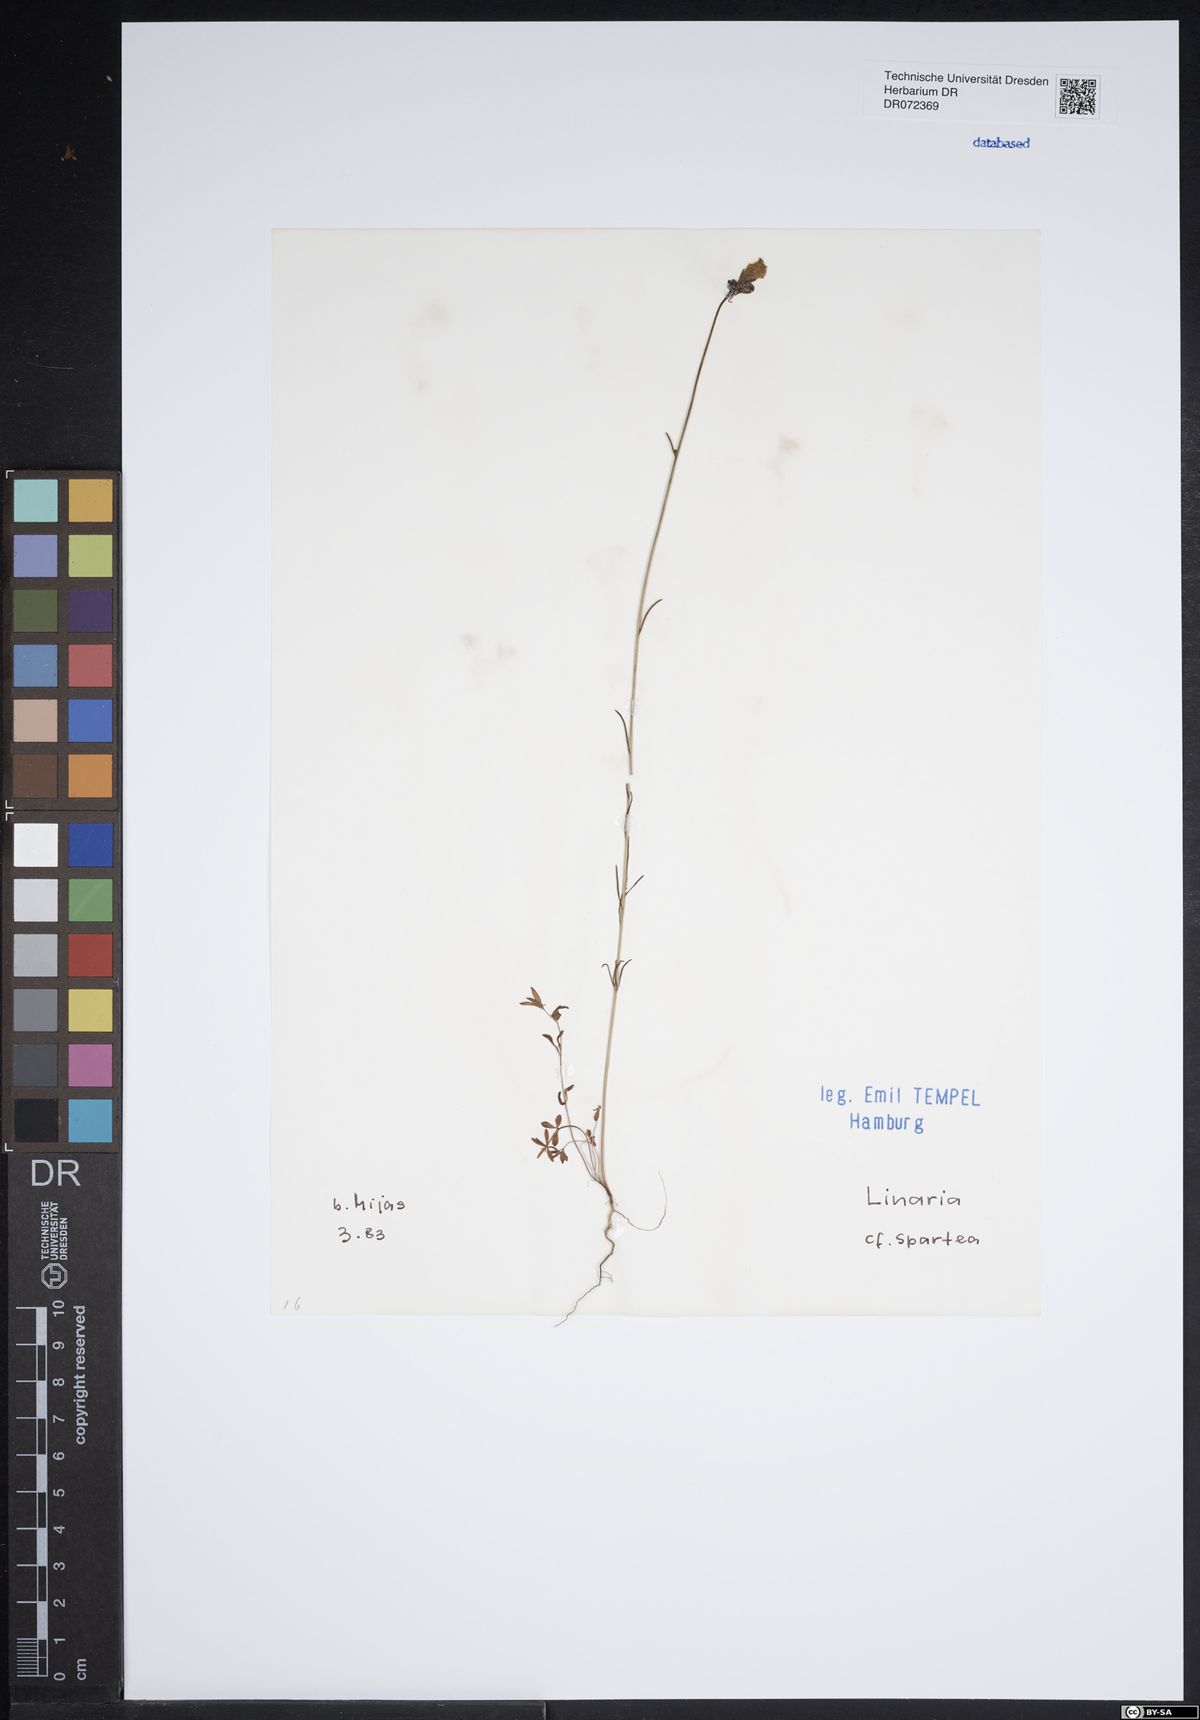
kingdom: Plantae
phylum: Tracheophyta
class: Magnoliopsida
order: Lamiales
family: Plantaginaceae
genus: Linaria
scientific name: Linaria spartea
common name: Ballast toadflax
